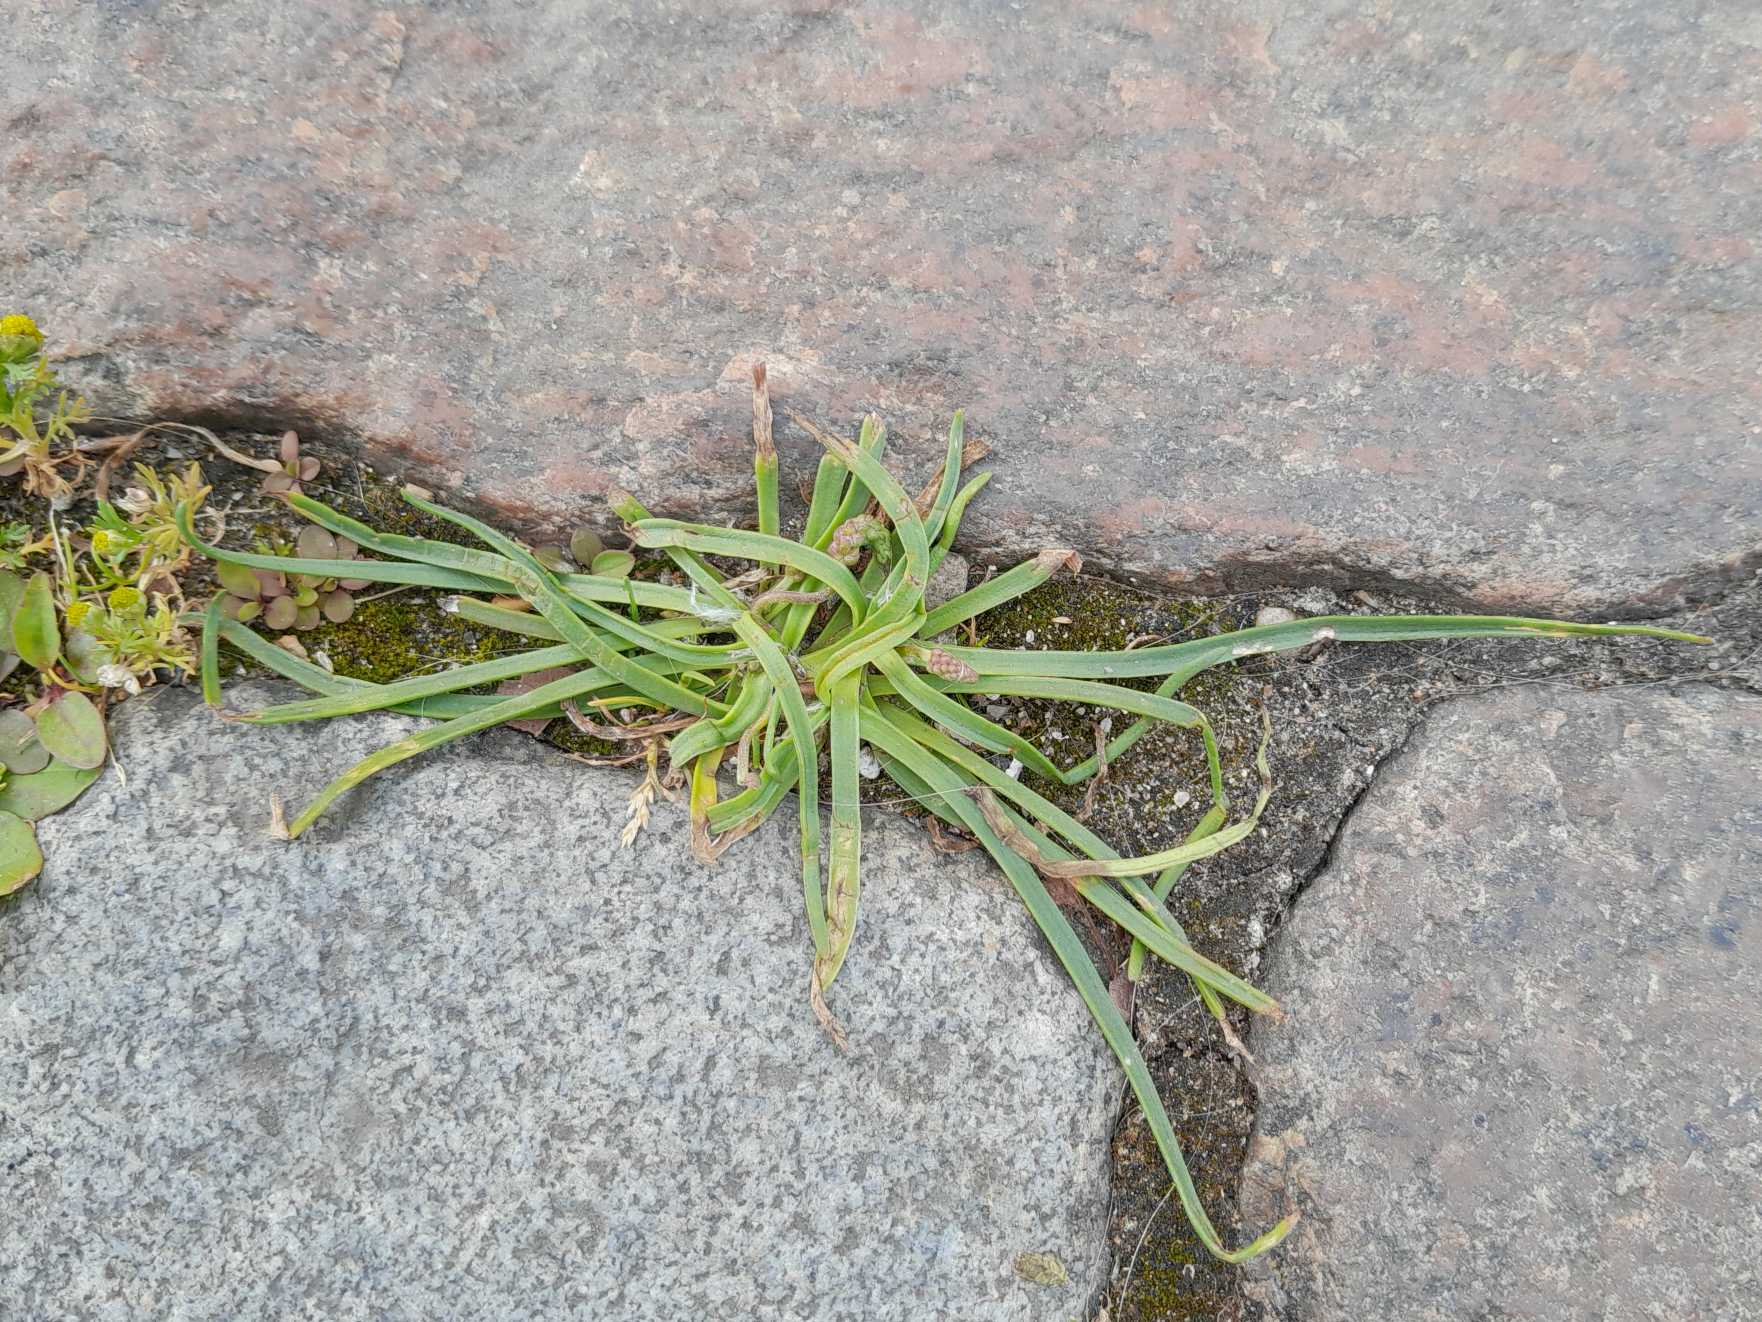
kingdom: Plantae
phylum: Tracheophyta
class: Magnoliopsida
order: Lamiales
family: Plantaginaceae
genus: Plantago
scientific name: Plantago maritima
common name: Strand-vejbred
